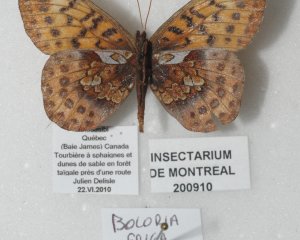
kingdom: Animalia
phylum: Arthropoda
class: Insecta
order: Lepidoptera
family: Nymphalidae
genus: Boloria
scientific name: Boloria frigga
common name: Frigga Fritillary
